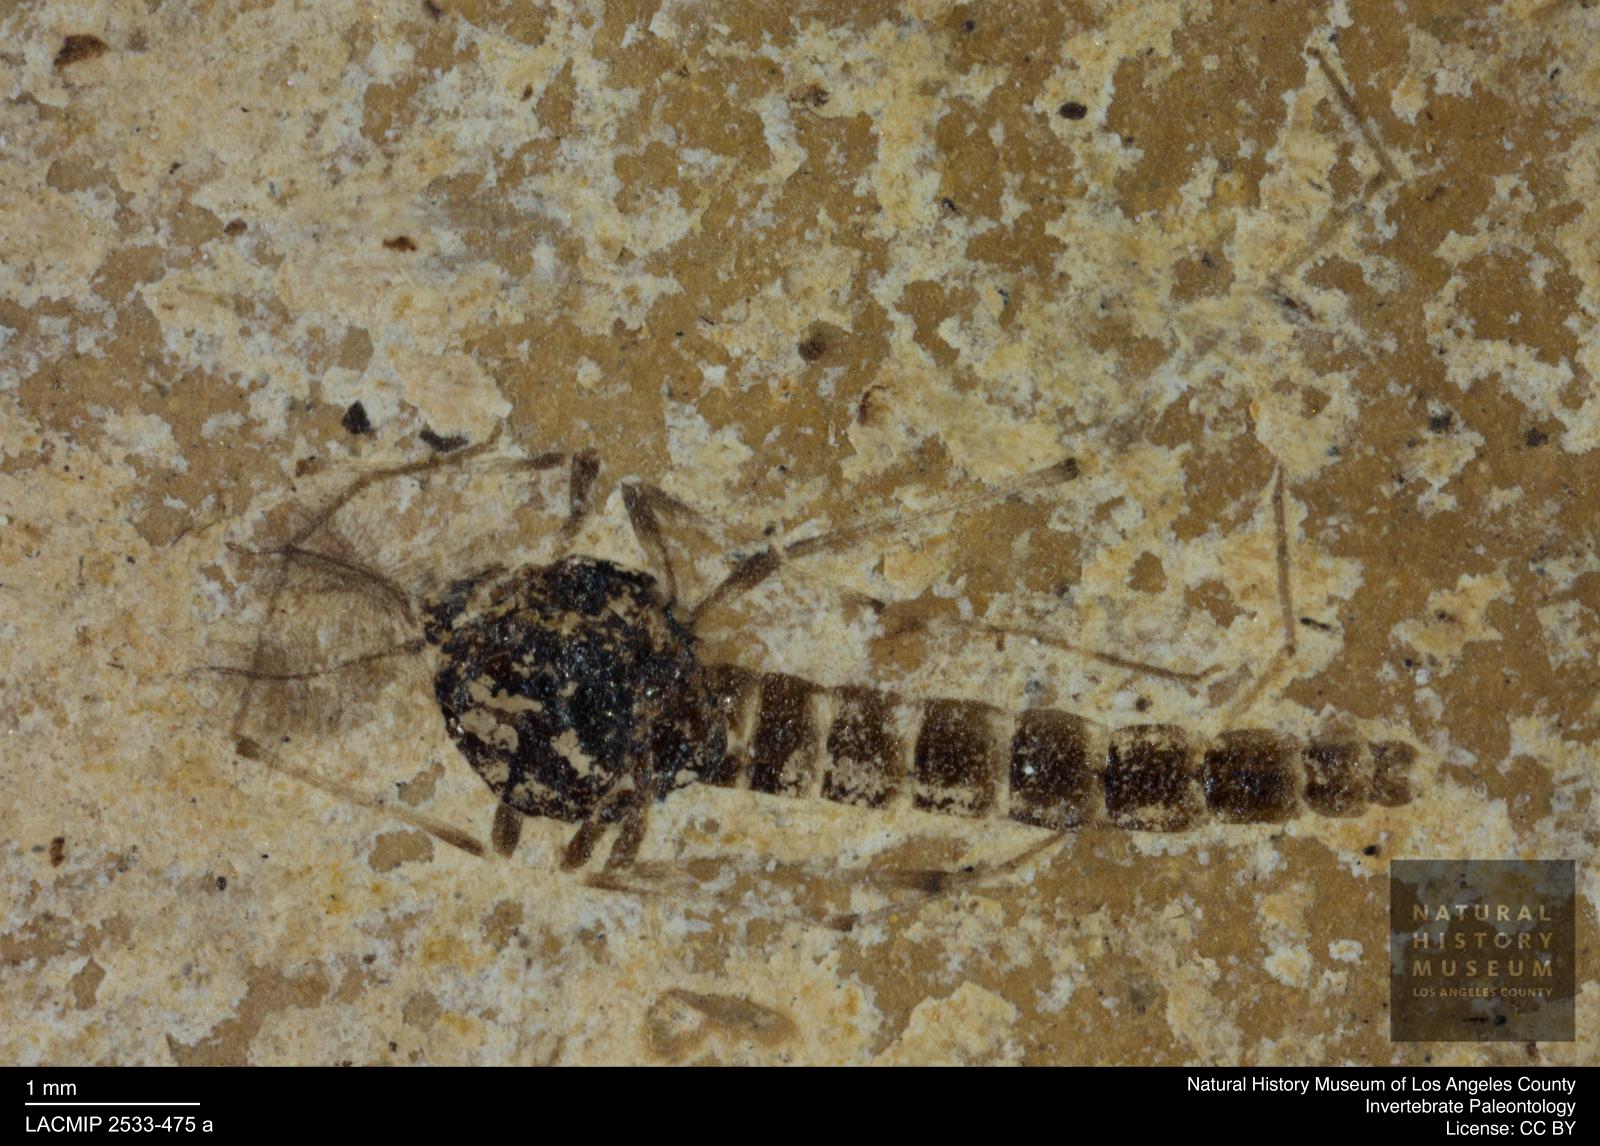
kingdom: Animalia
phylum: Arthropoda
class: Insecta
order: Diptera
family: Chironomidae
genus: Procladius
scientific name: Procladius
